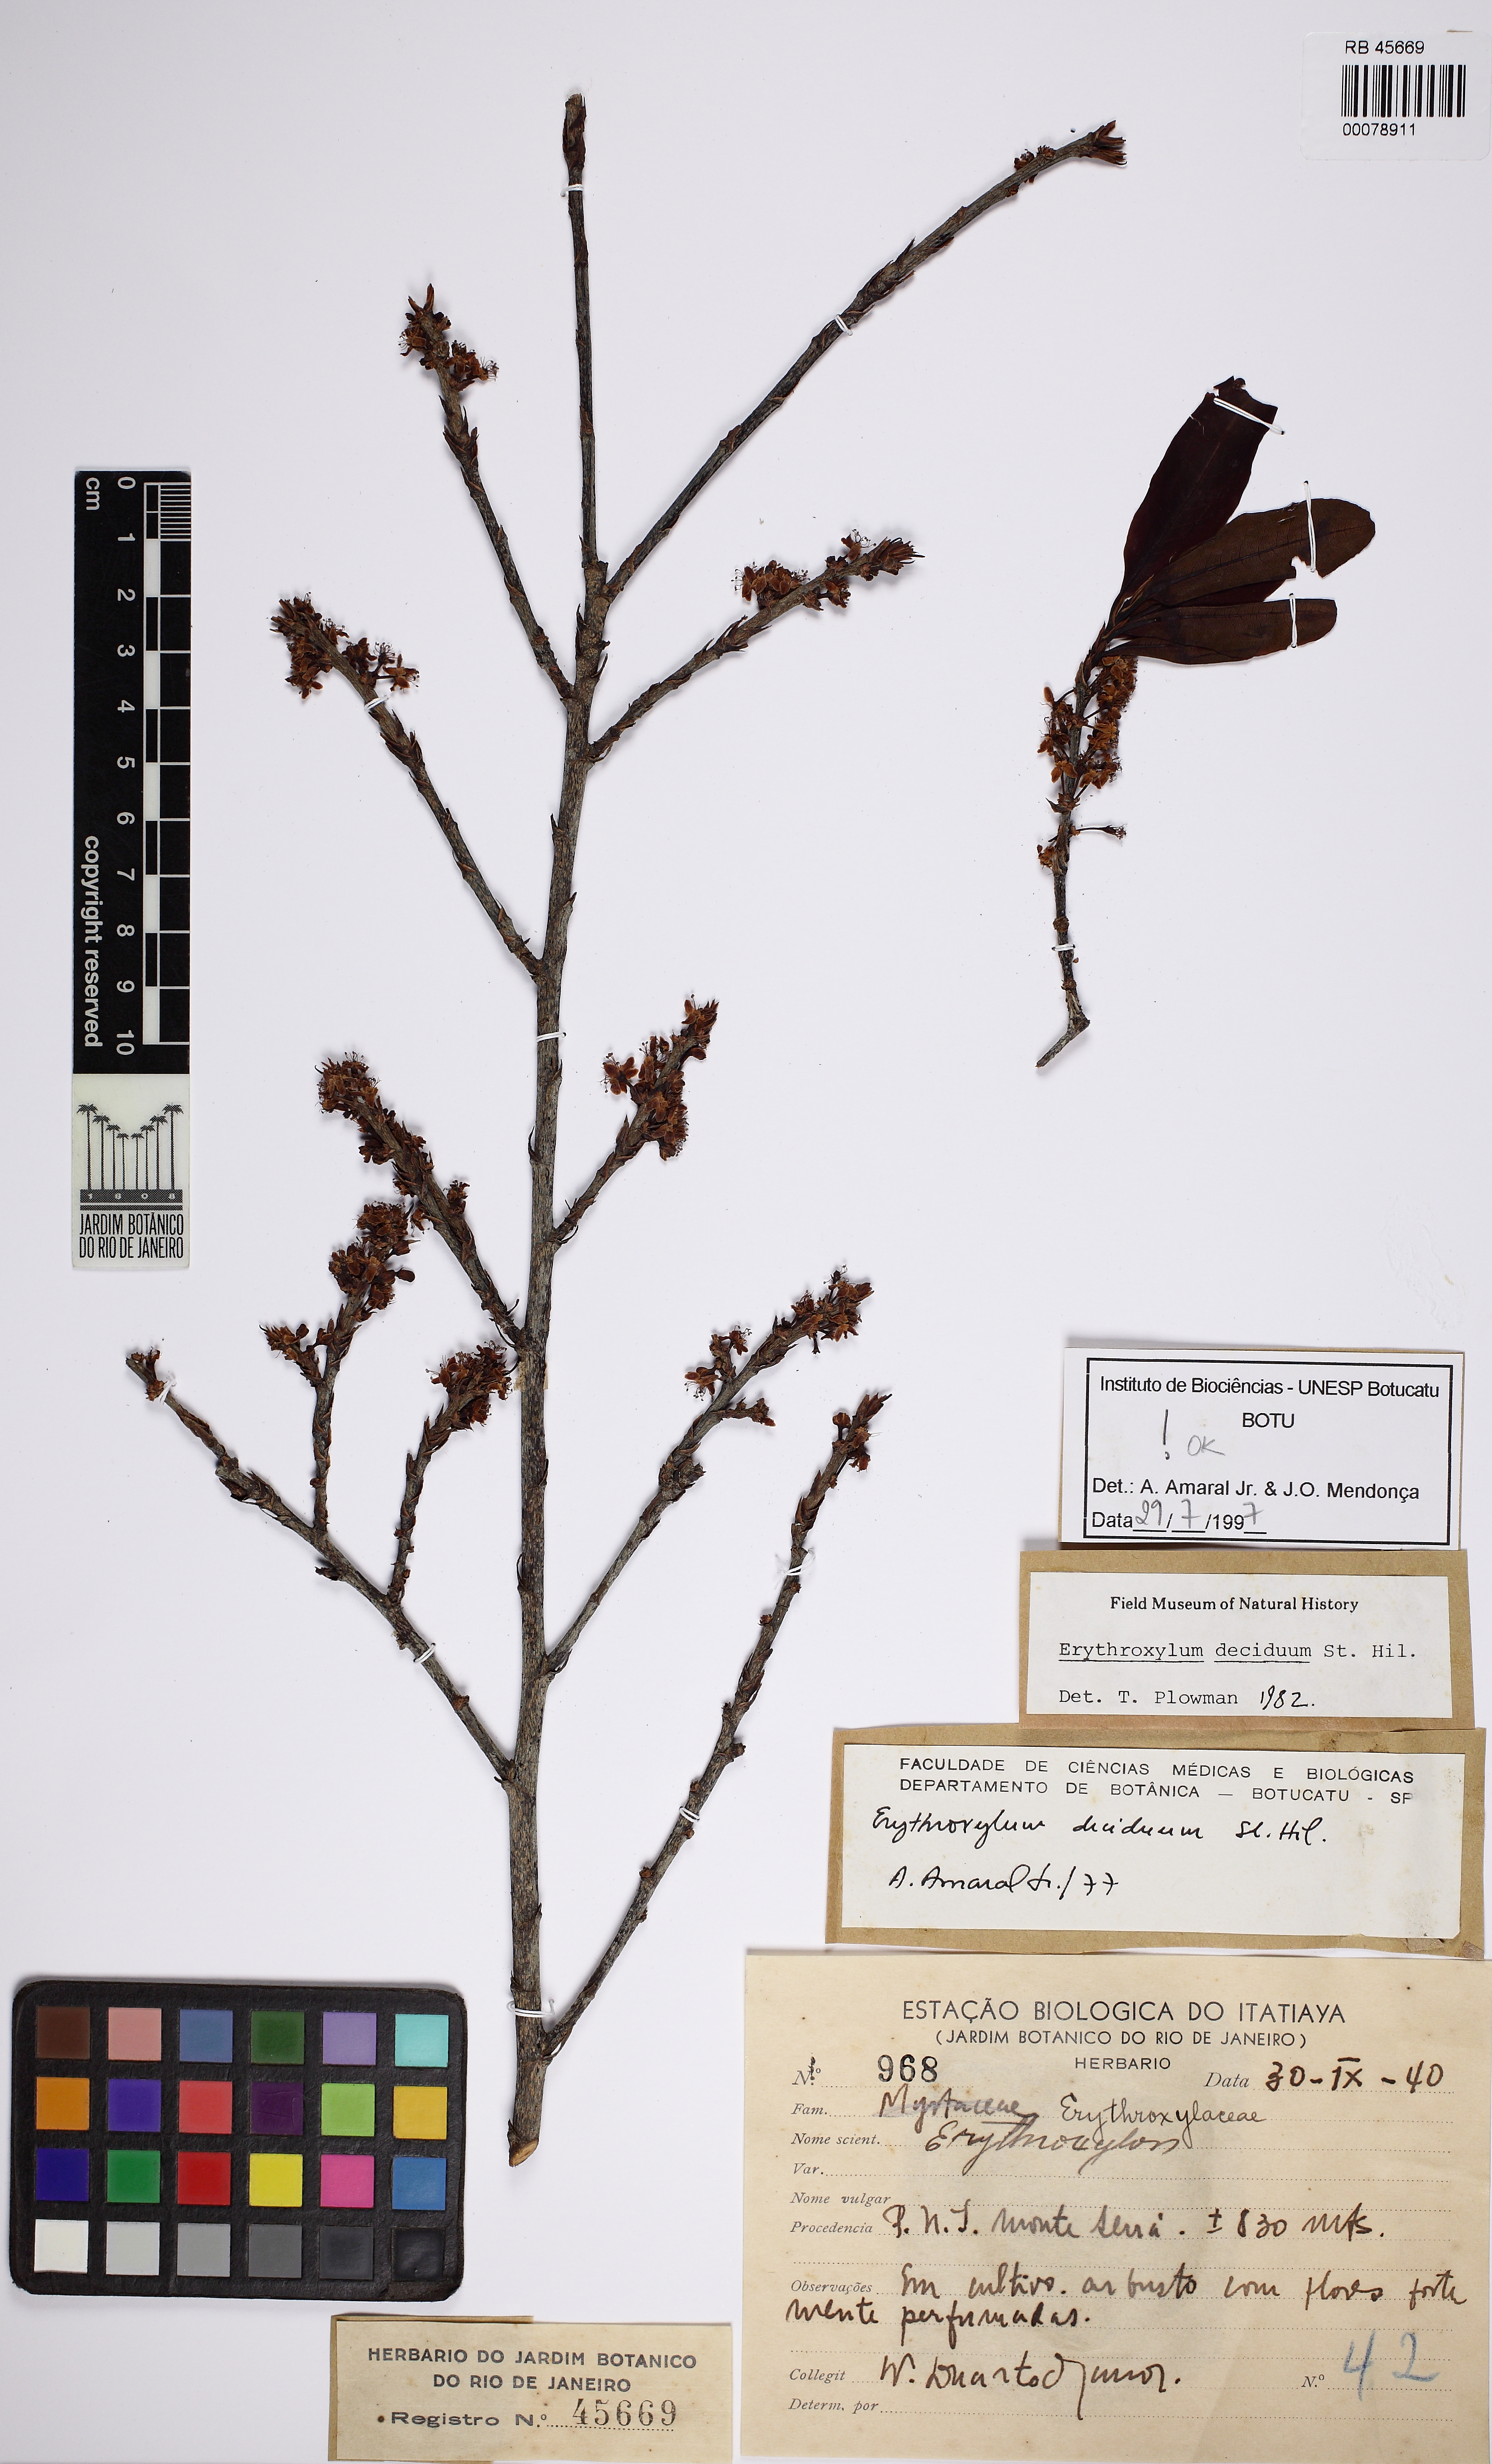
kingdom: Plantae
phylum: Tracheophyta
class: Magnoliopsida
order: Malpighiales
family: Erythroxylaceae
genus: Erythroxylum
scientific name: Erythroxylum deciduum
